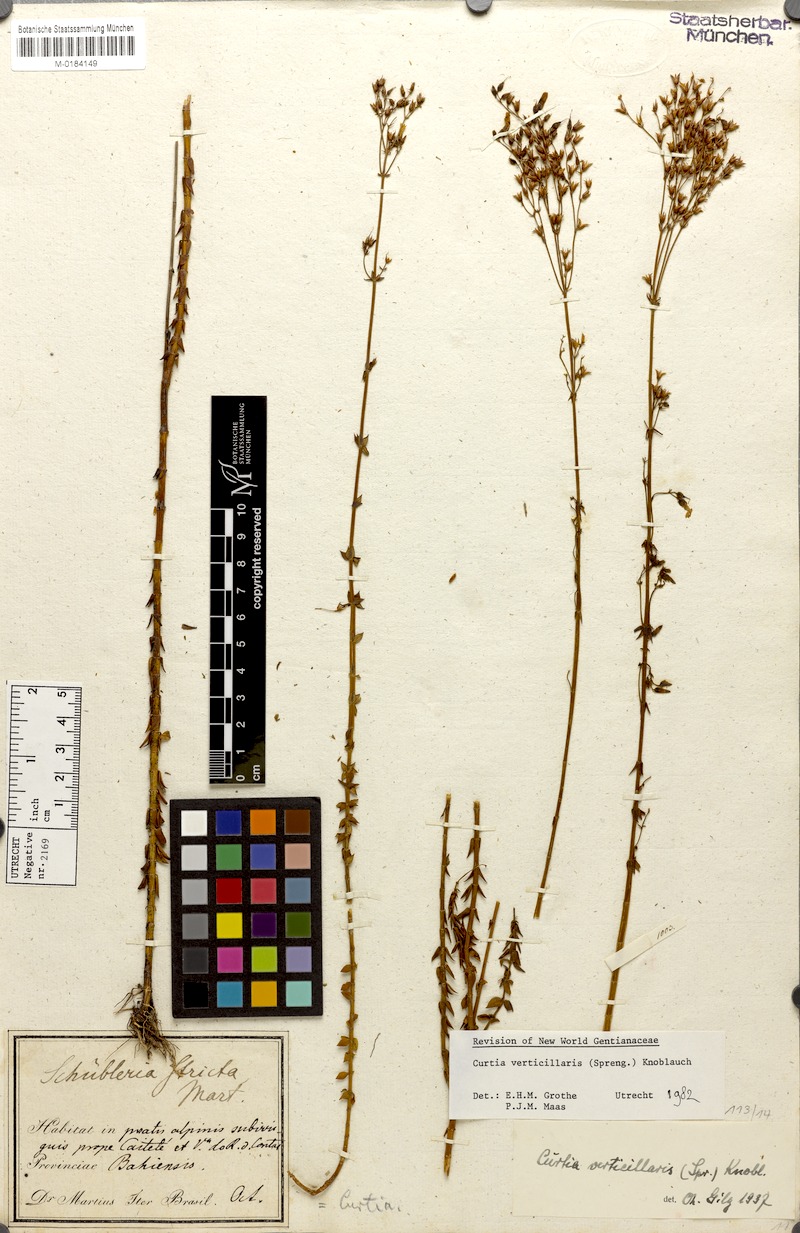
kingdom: Plantae
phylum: Tracheophyta
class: Magnoliopsida
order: Gentianales
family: Gentianaceae
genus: Curtia
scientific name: Curtia verticillaris
